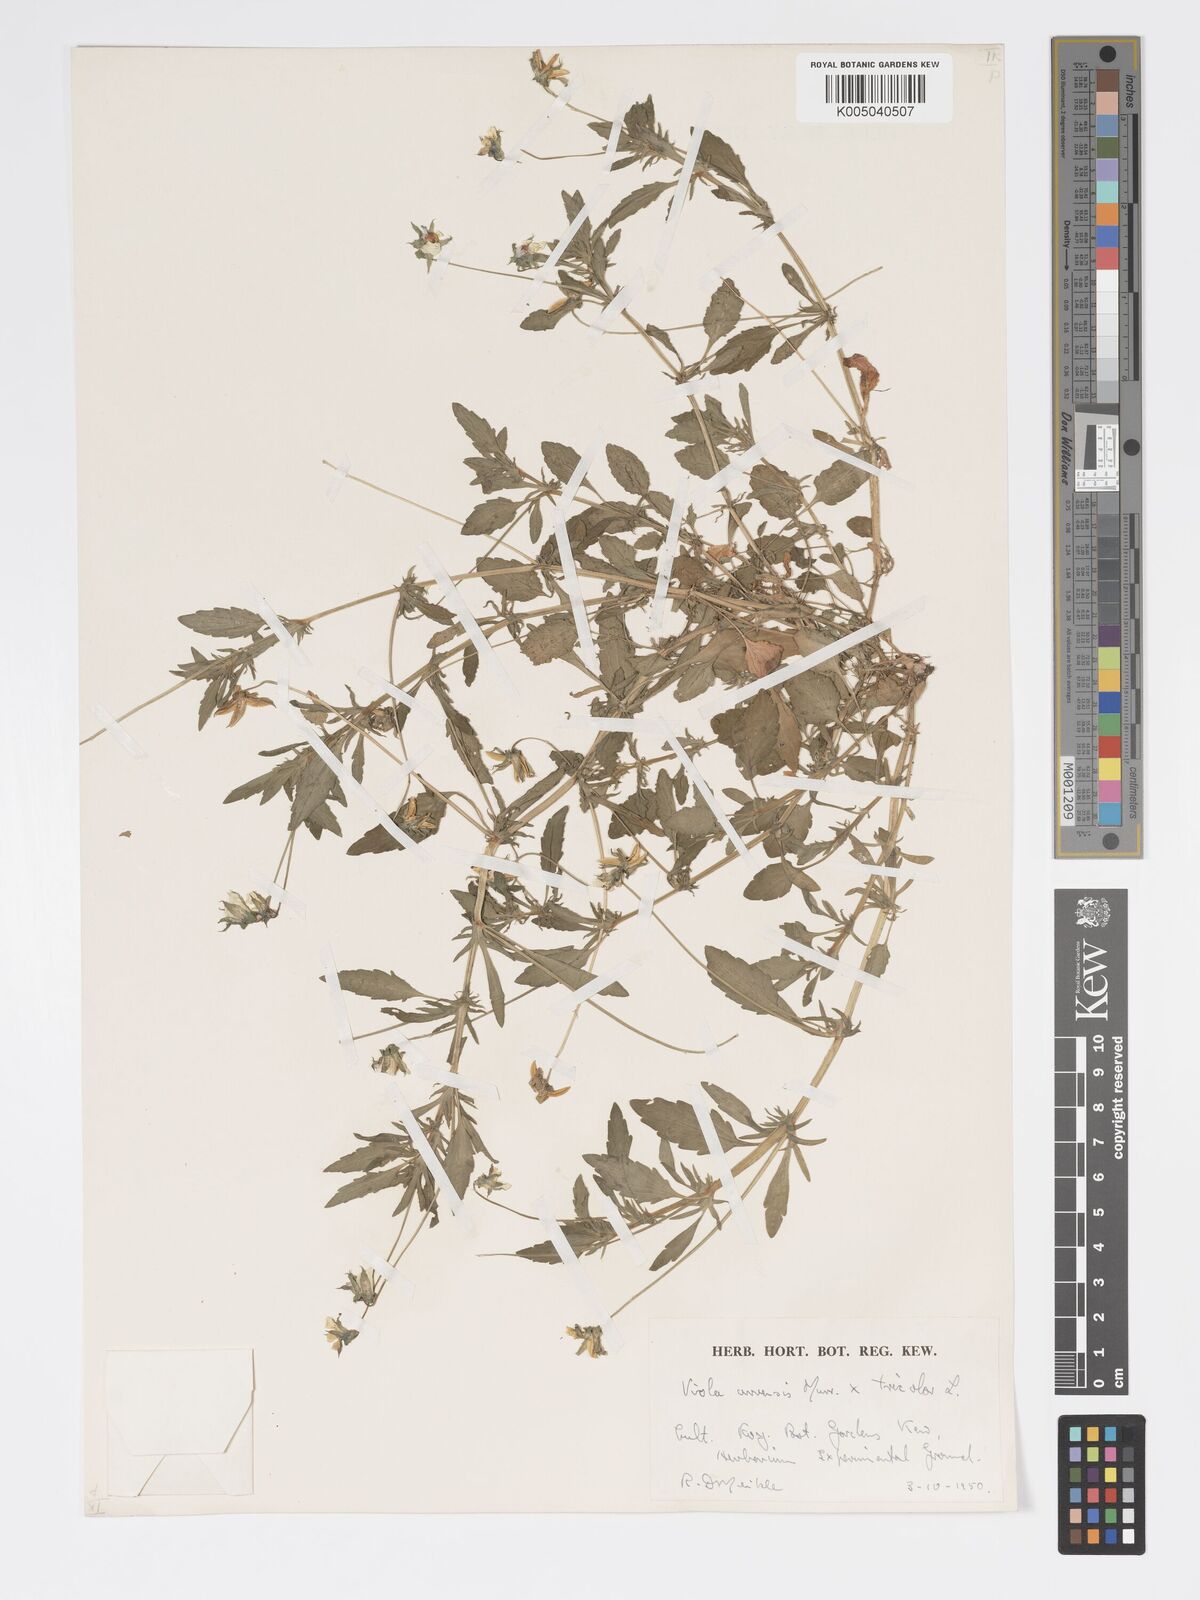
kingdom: Plantae
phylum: Tracheophyta
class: Magnoliopsida
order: Malpighiales
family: Violaceae
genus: Viola
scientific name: Viola arvensis
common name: Field pansy
